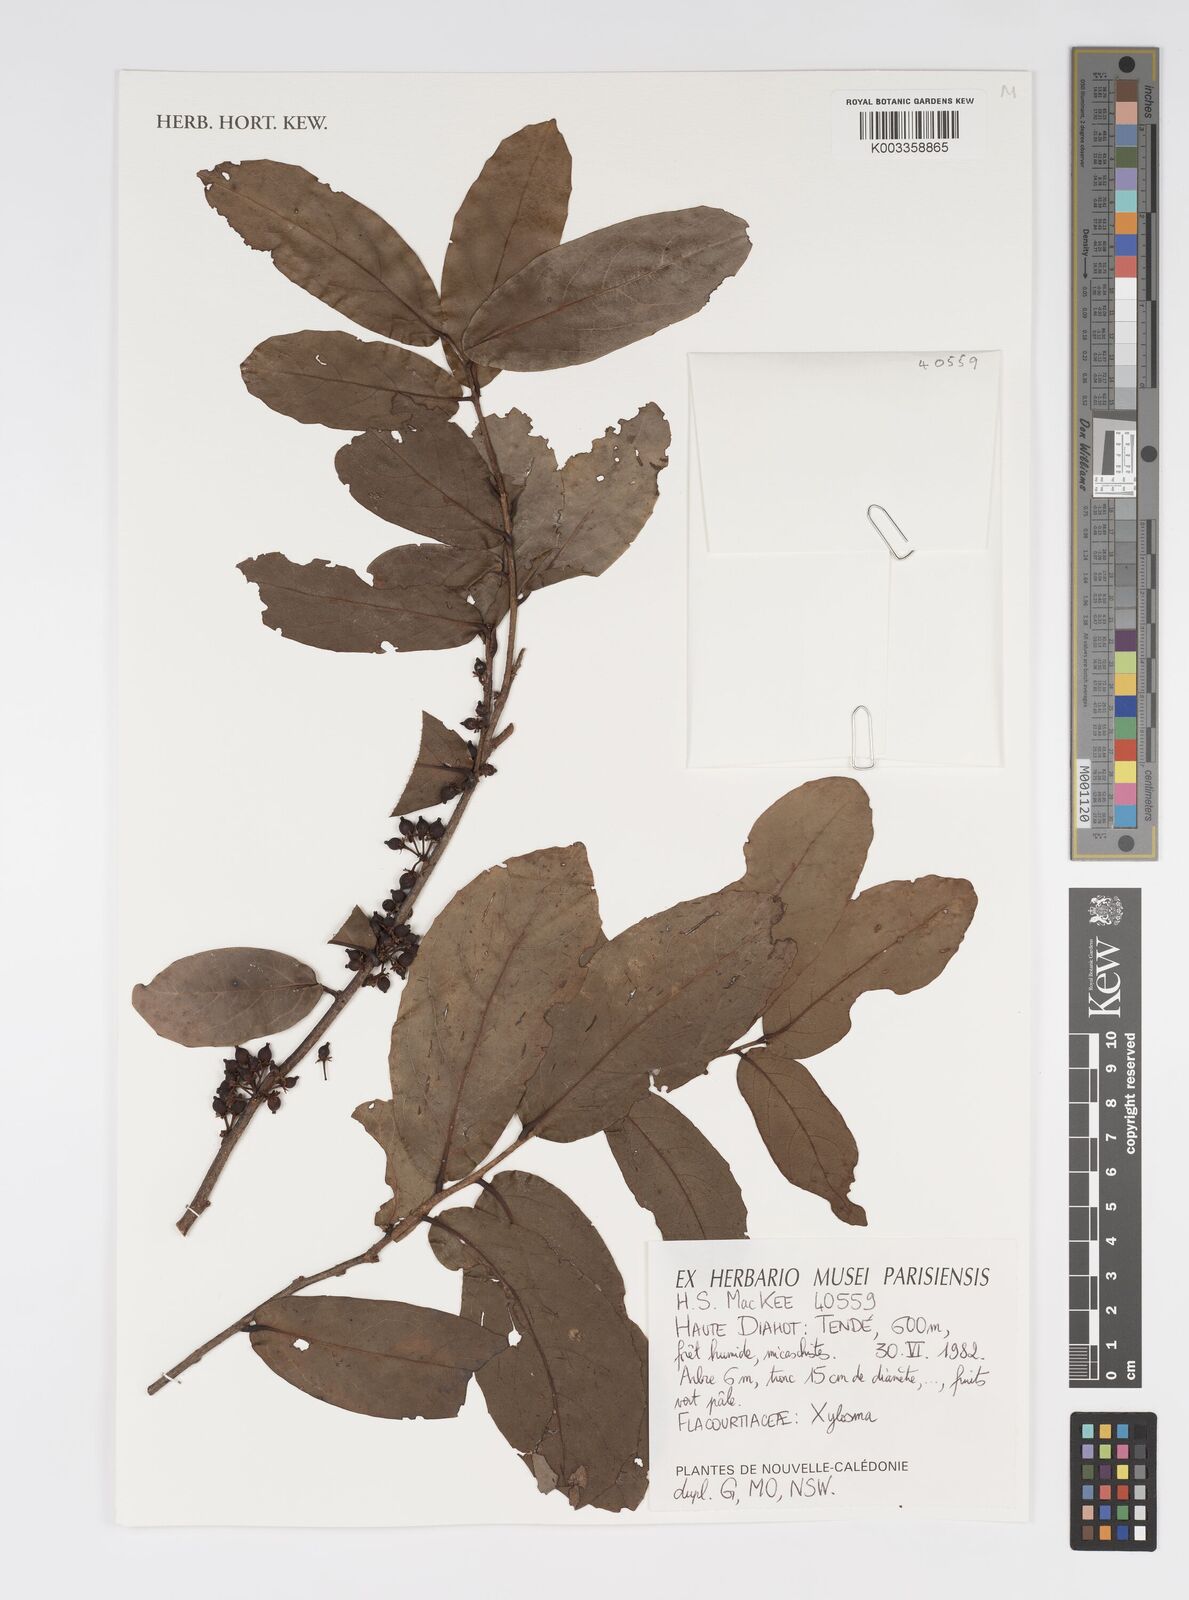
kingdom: Plantae
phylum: Tracheophyta
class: Magnoliopsida
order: Malpighiales
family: Salicaceae
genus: Xylosma
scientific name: Xylosma
